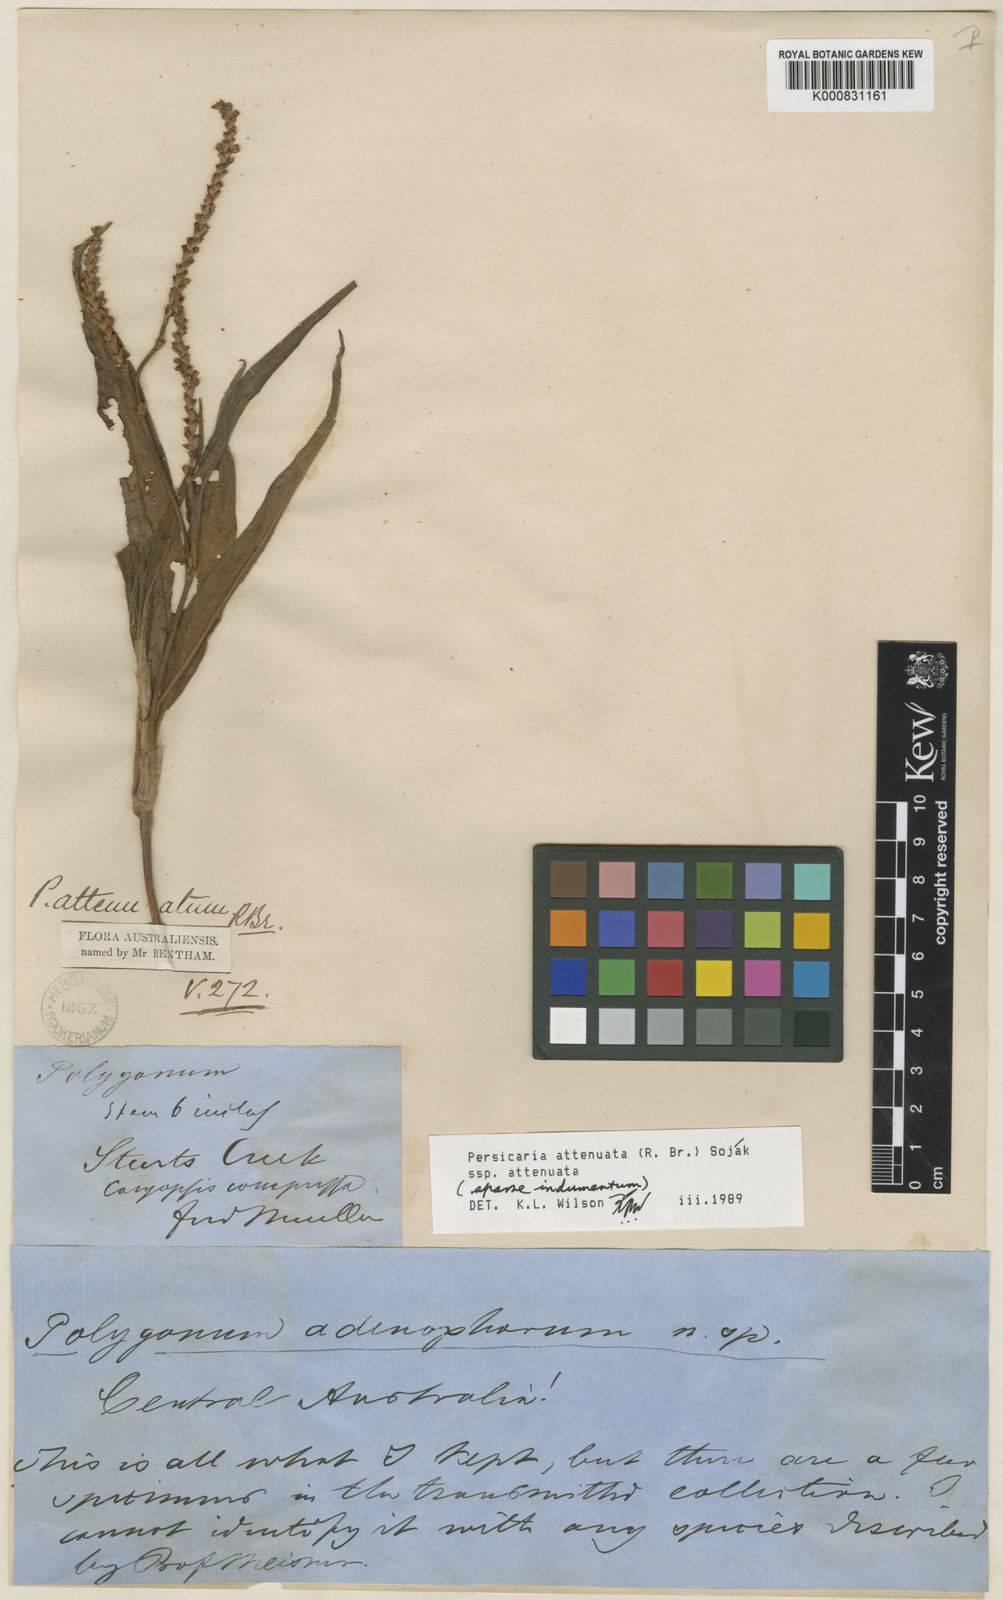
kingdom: Plantae
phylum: Tracheophyta
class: Magnoliopsida
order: Caryophyllales
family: Polygonaceae
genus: Persicaria
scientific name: Persicaria
